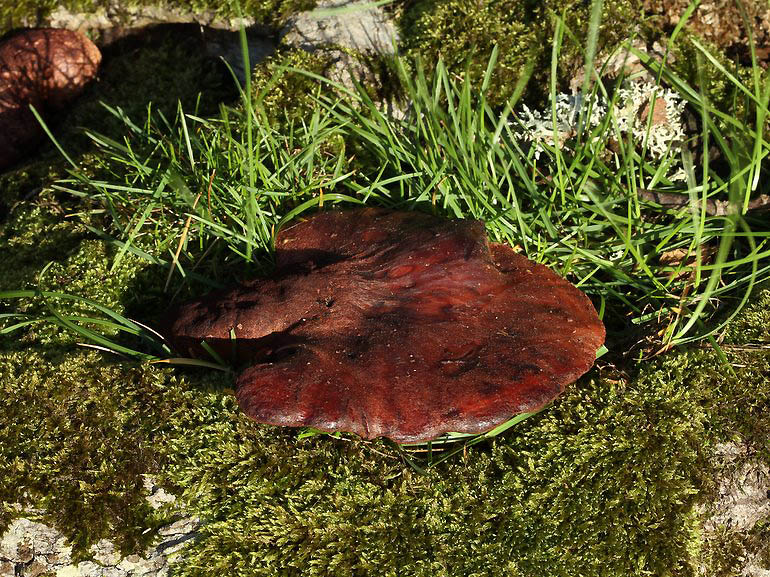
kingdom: Fungi
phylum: Basidiomycota
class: Agaricomycetes
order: Agaricales
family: Fistulinaceae
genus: Fistulina
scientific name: Fistulina hepatica
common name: oksetunge
